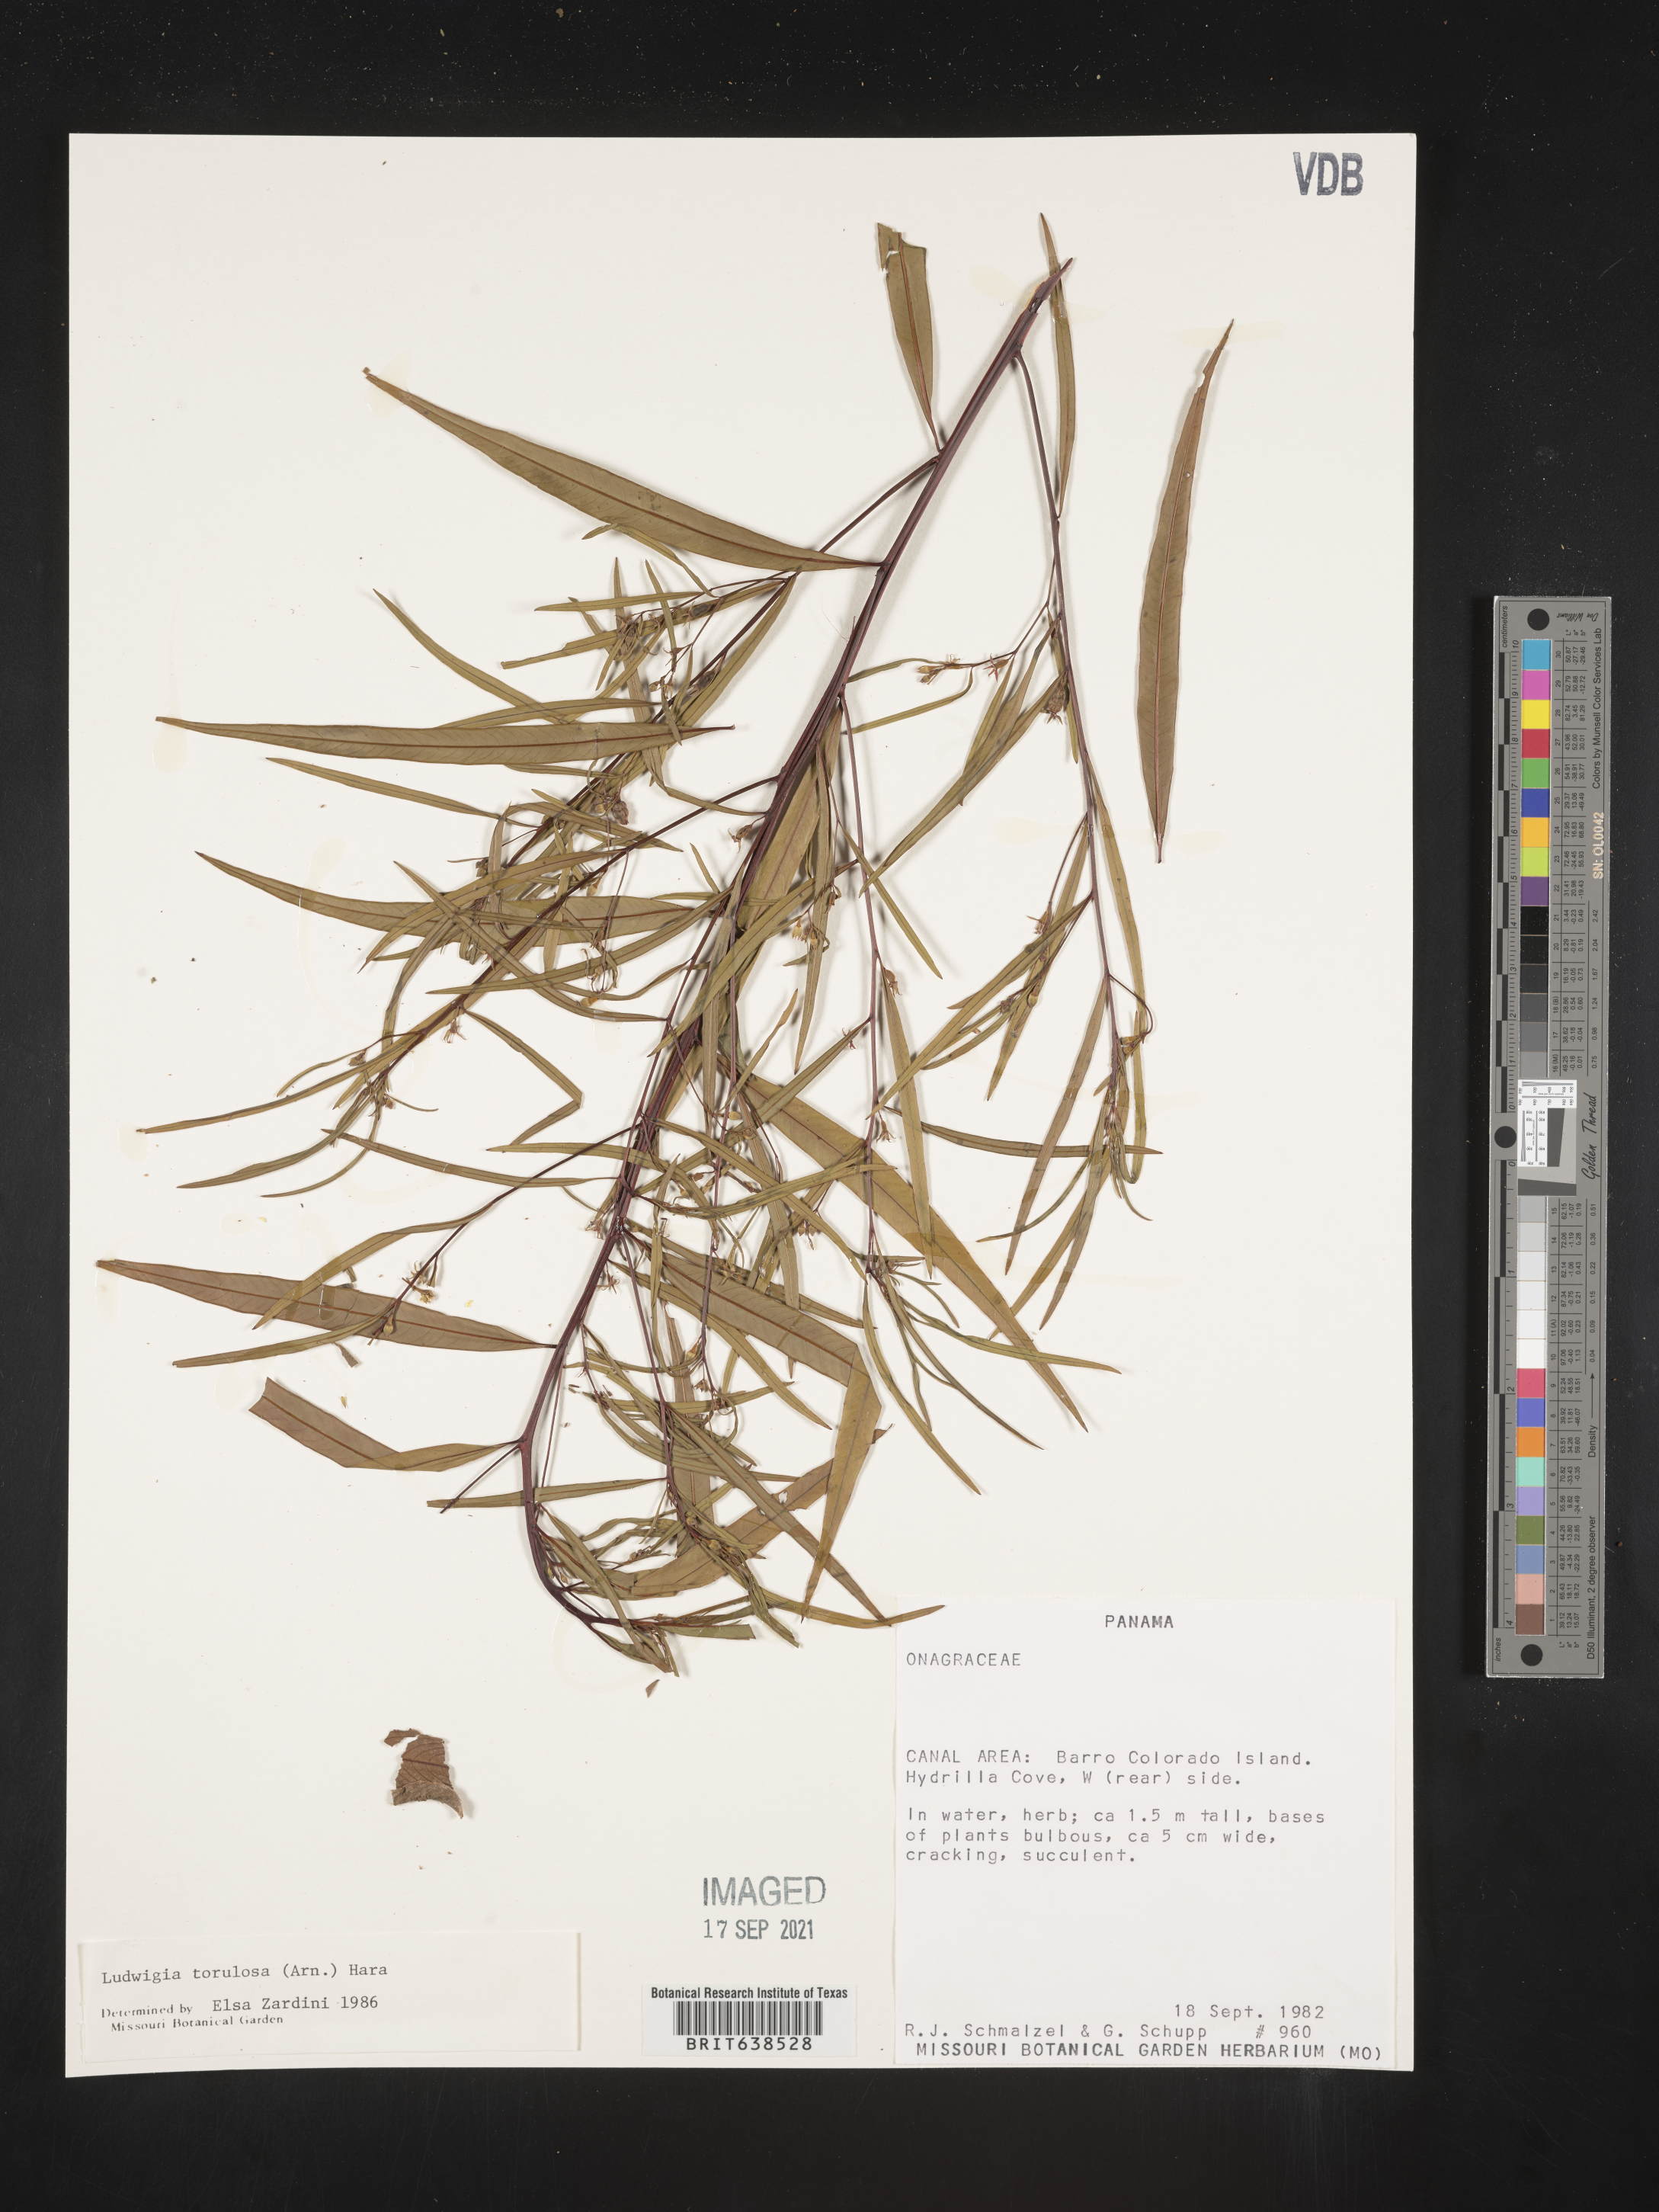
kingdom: Plantae
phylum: Tracheophyta
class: Magnoliopsida
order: Myrtales
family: Onagraceae
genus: Ludwigia
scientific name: Ludwigia
